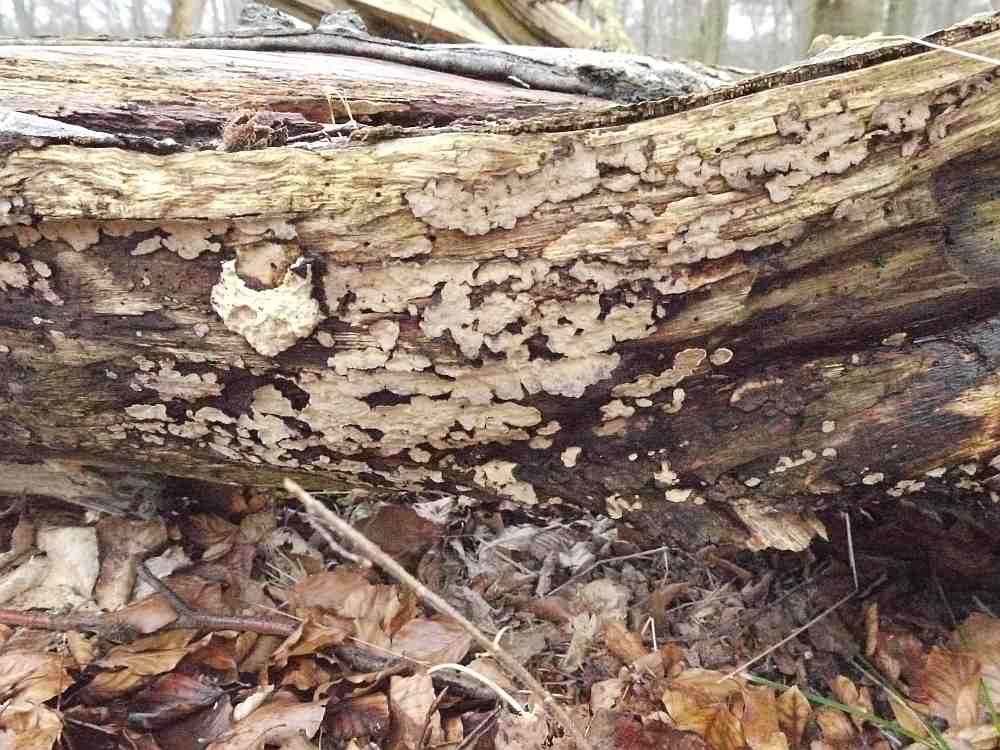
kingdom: Fungi
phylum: Basidiomycota
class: Agaricomycetes
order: Russulales
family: Stereaceae
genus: Stereum
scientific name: Stereum rugosum
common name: rynket lædersvamp
